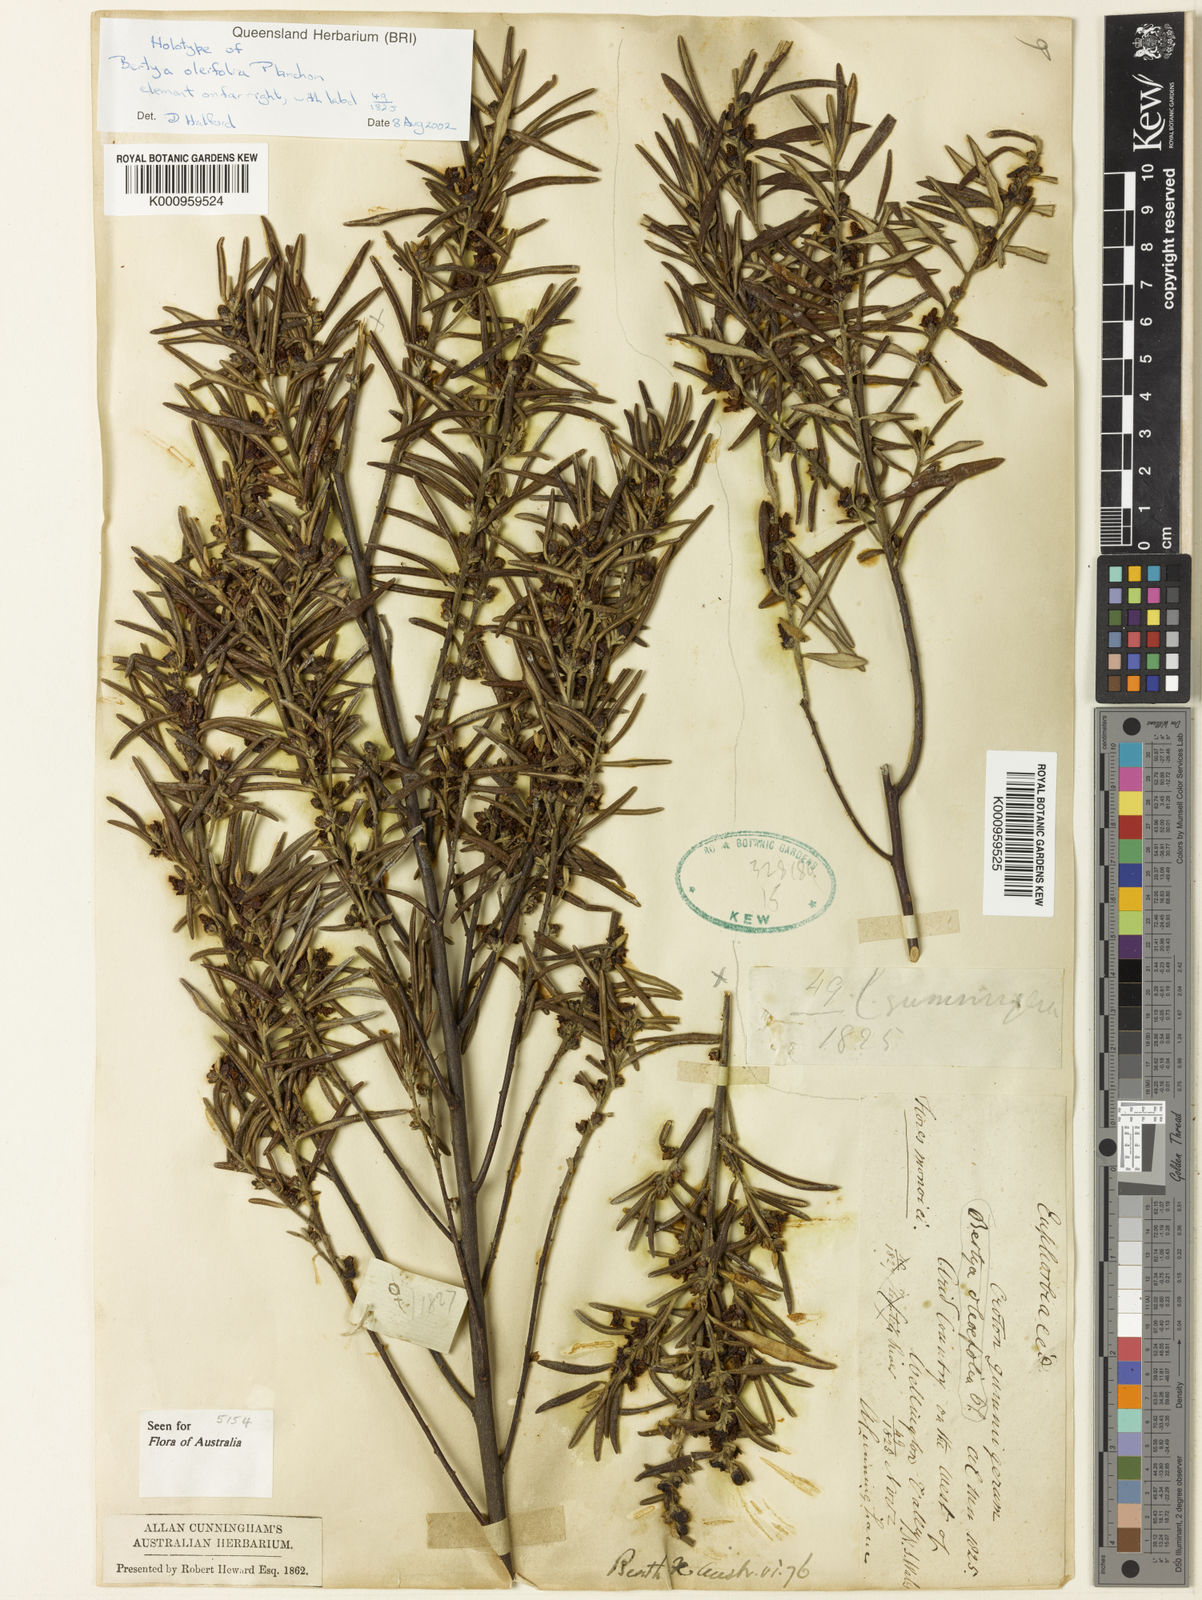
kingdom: Plantae
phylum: Tracheophyta
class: Magnoliopsida
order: Malpighiales
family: Euphorbiaceae
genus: Bertya
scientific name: Bertya oleifolia
